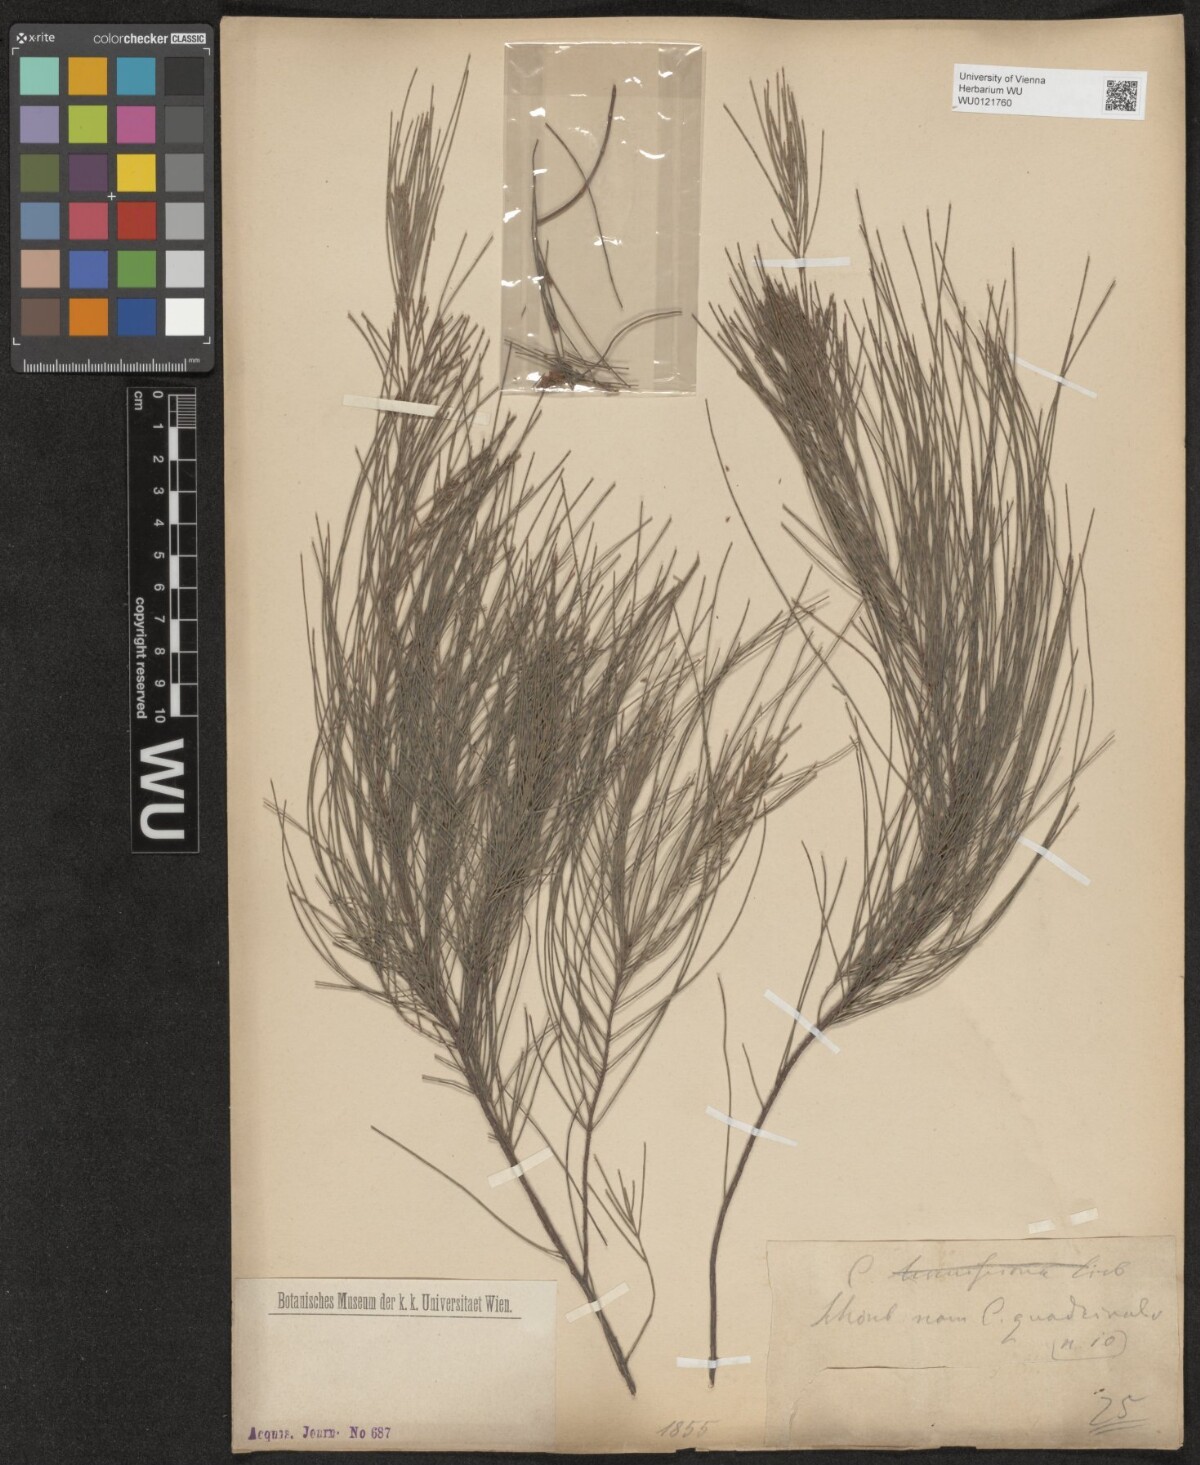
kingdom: Plantae
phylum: Tracheophyta
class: Magnoliopsida
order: Fagales
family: Casuarinaceae
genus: Casuarina
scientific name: Casuarina
